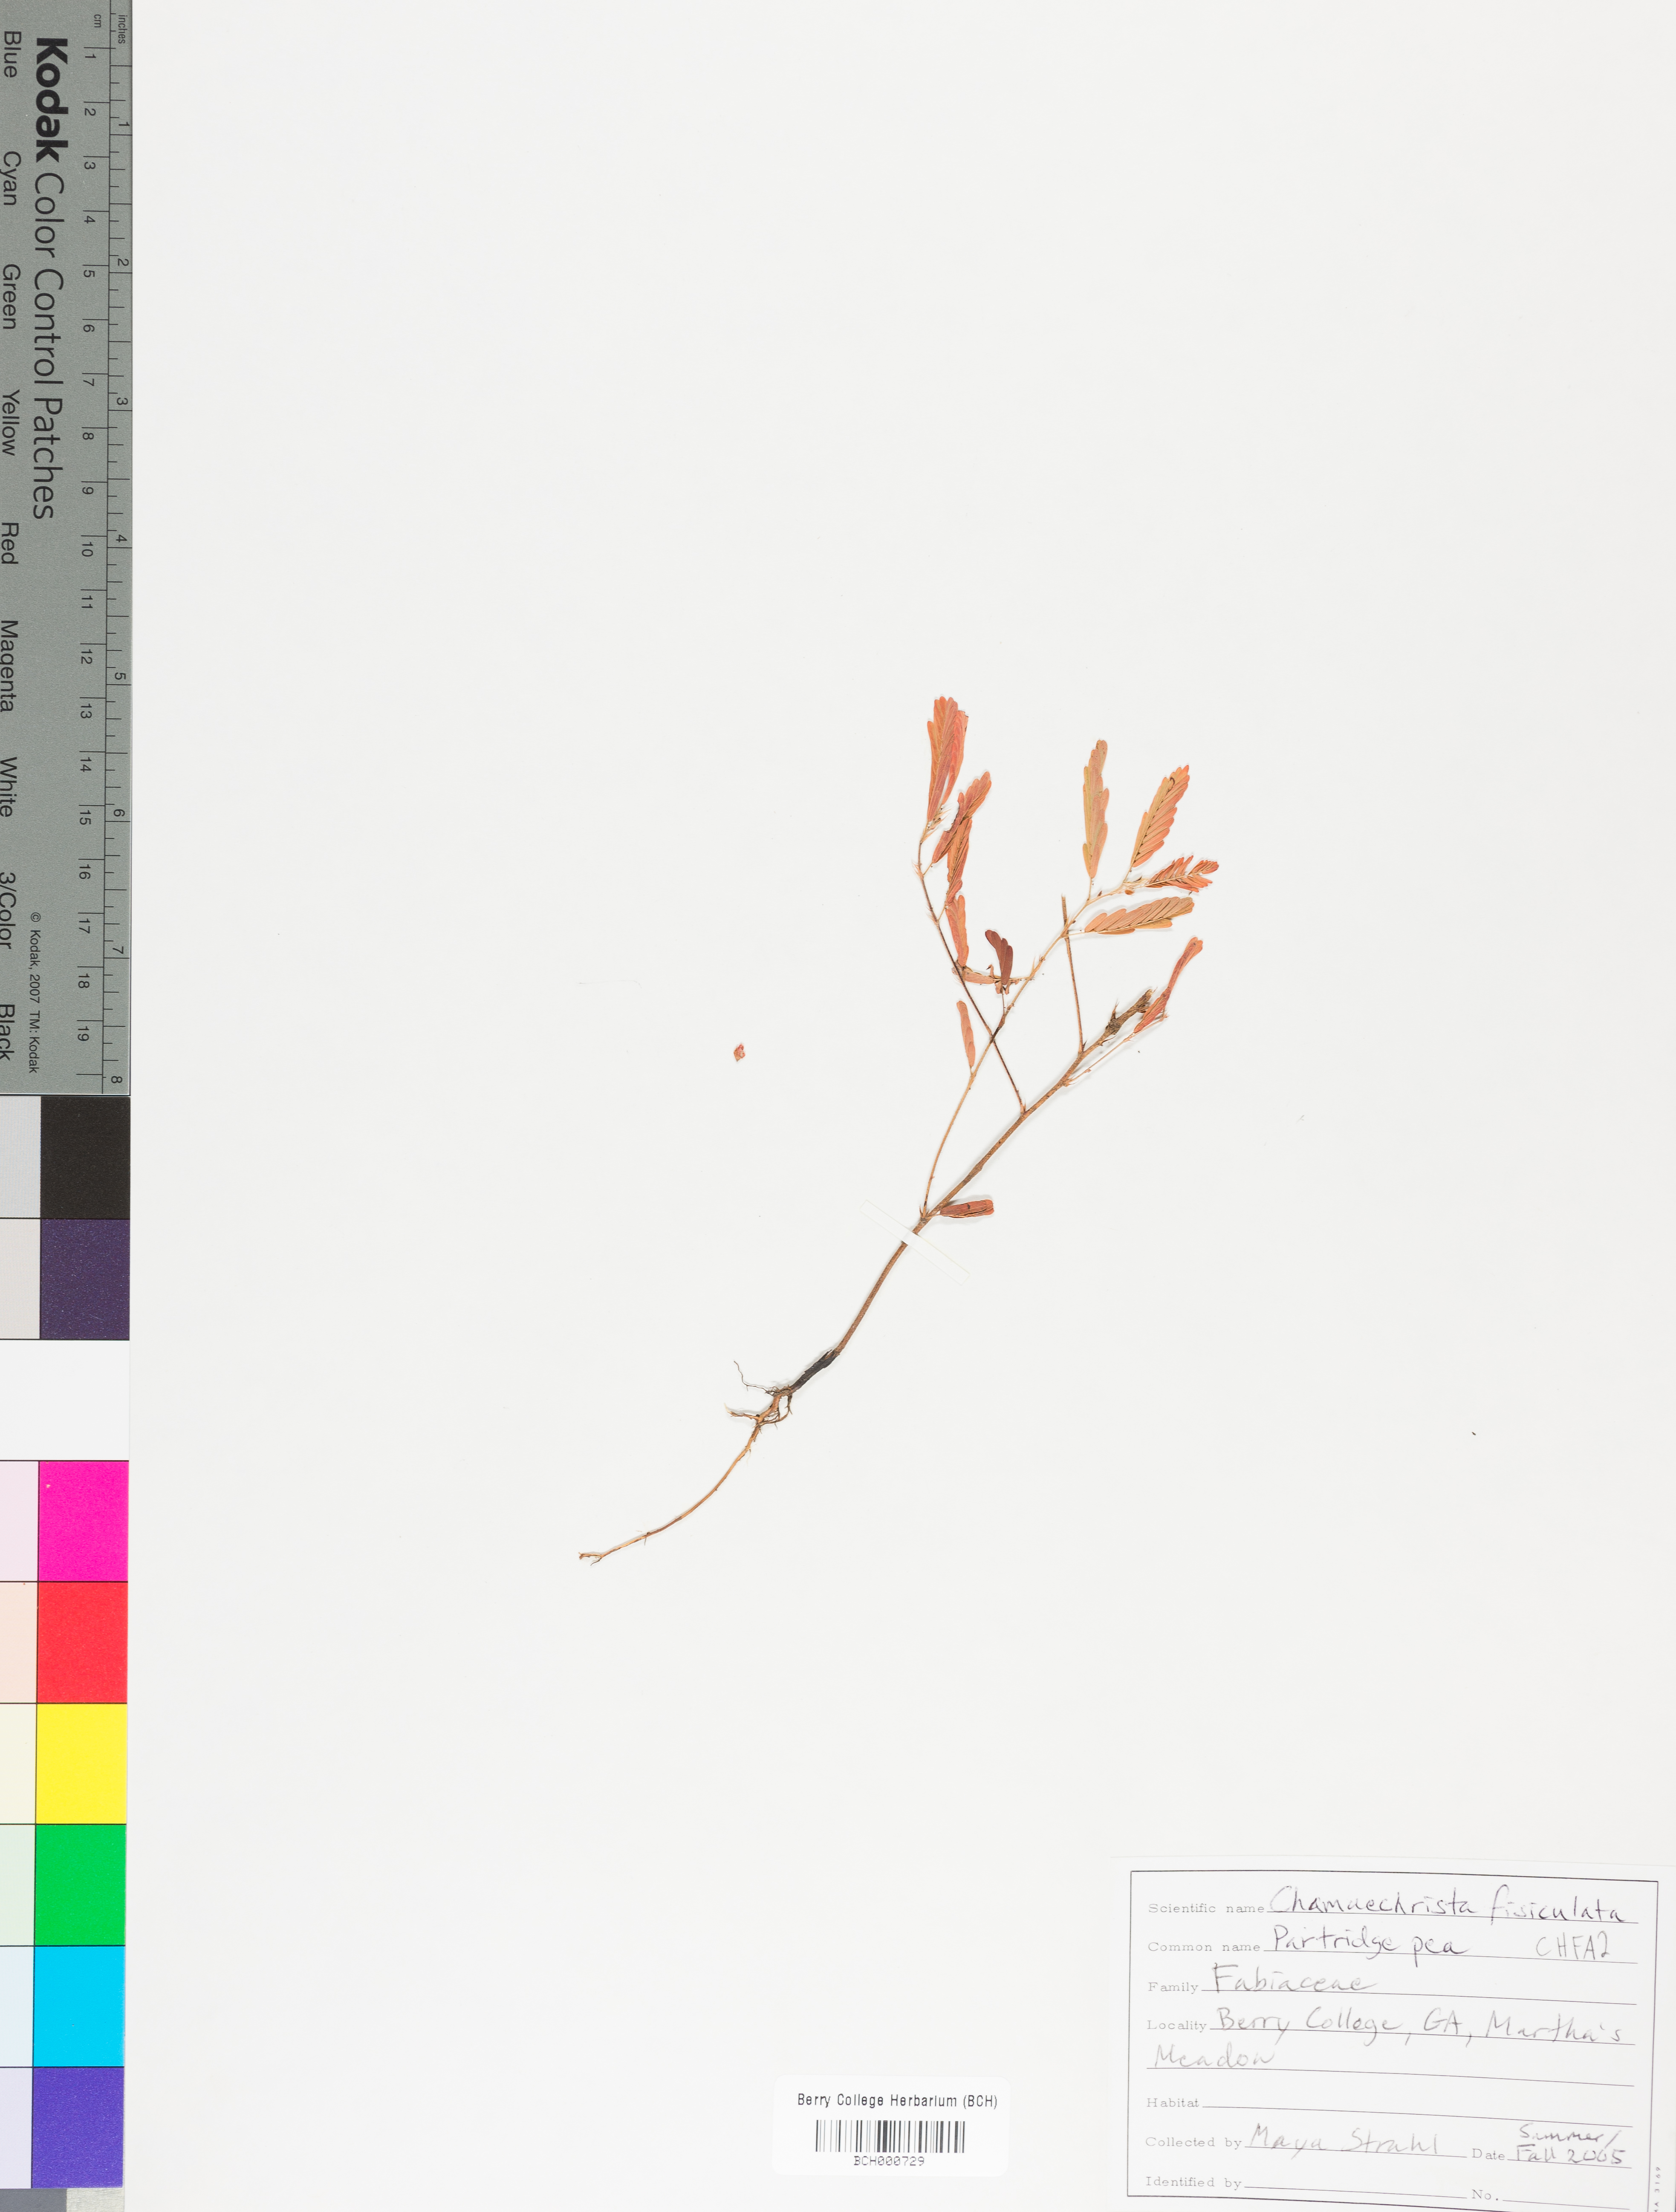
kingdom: Plantae
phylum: Tracheophyta
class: Magnoliopsida
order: Fabales
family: Fabaceae
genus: Chamaecrista
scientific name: Chamaecrista fasciculata
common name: Golden cassia
